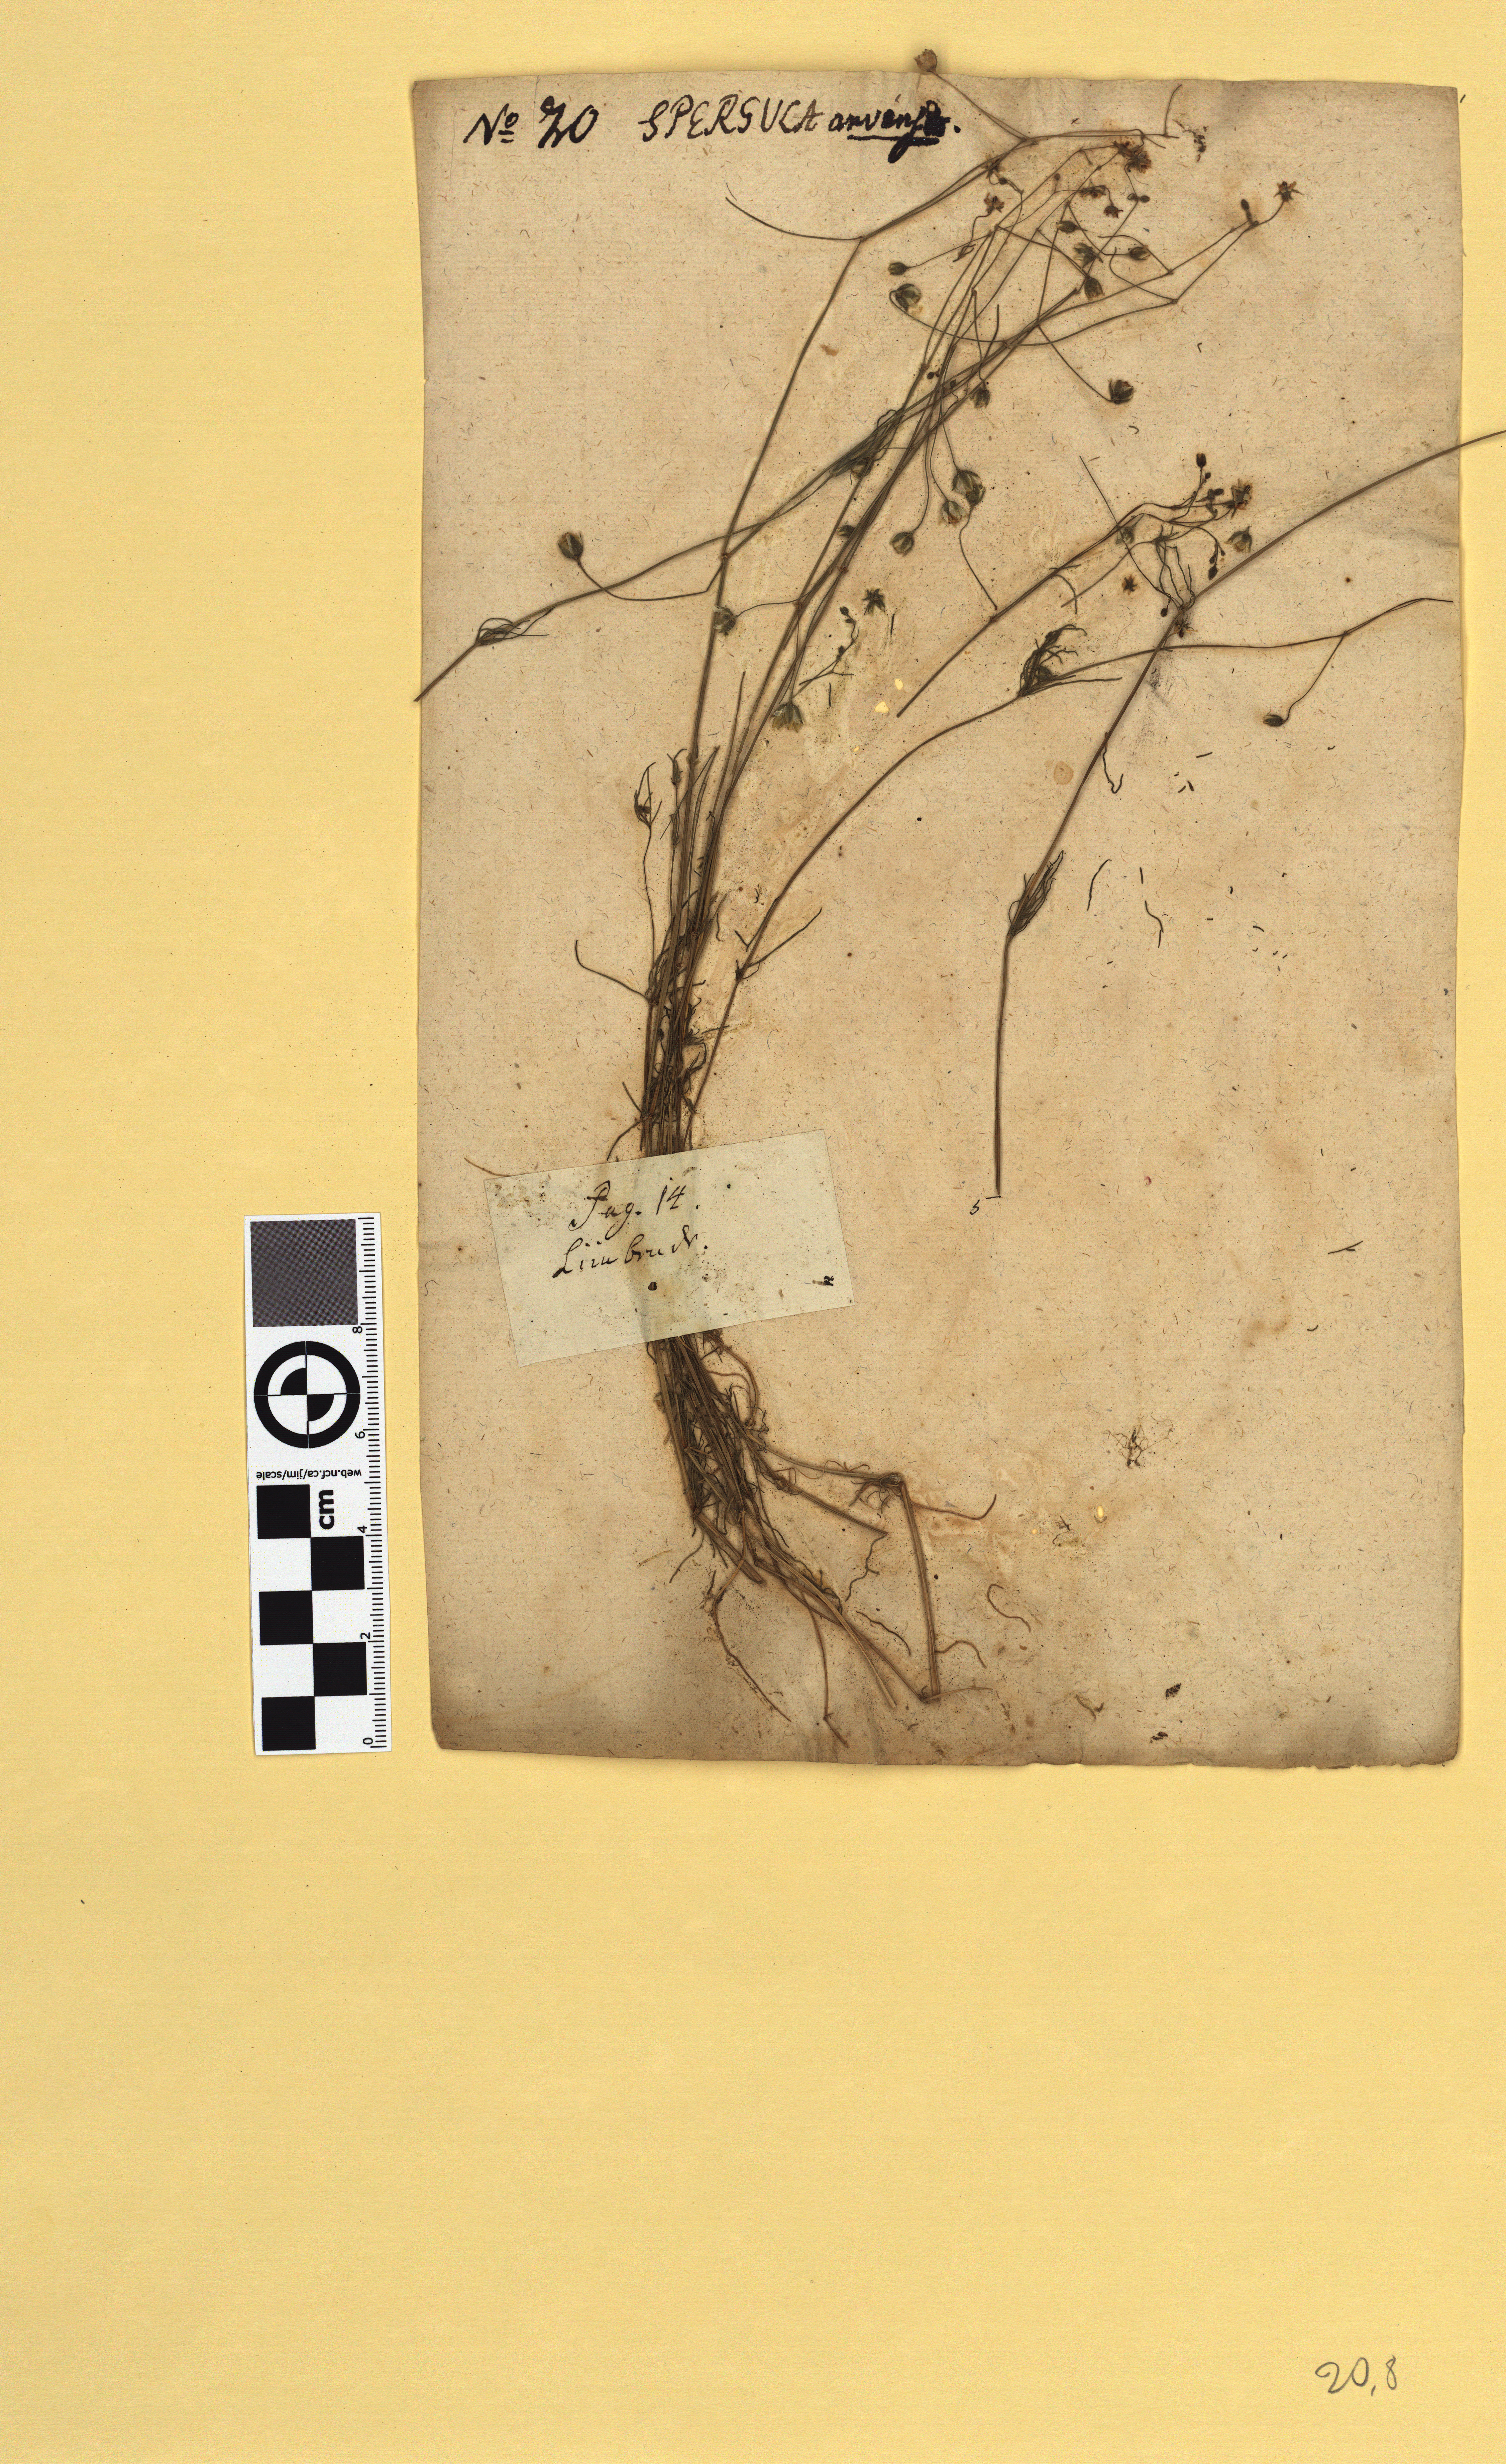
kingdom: Plantae
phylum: Tracheophyta
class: Magnoliopsida
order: Caryophyllales
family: Caryophyllaceae
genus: Spergula
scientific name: Spergula arvensis
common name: Corn spurrey
